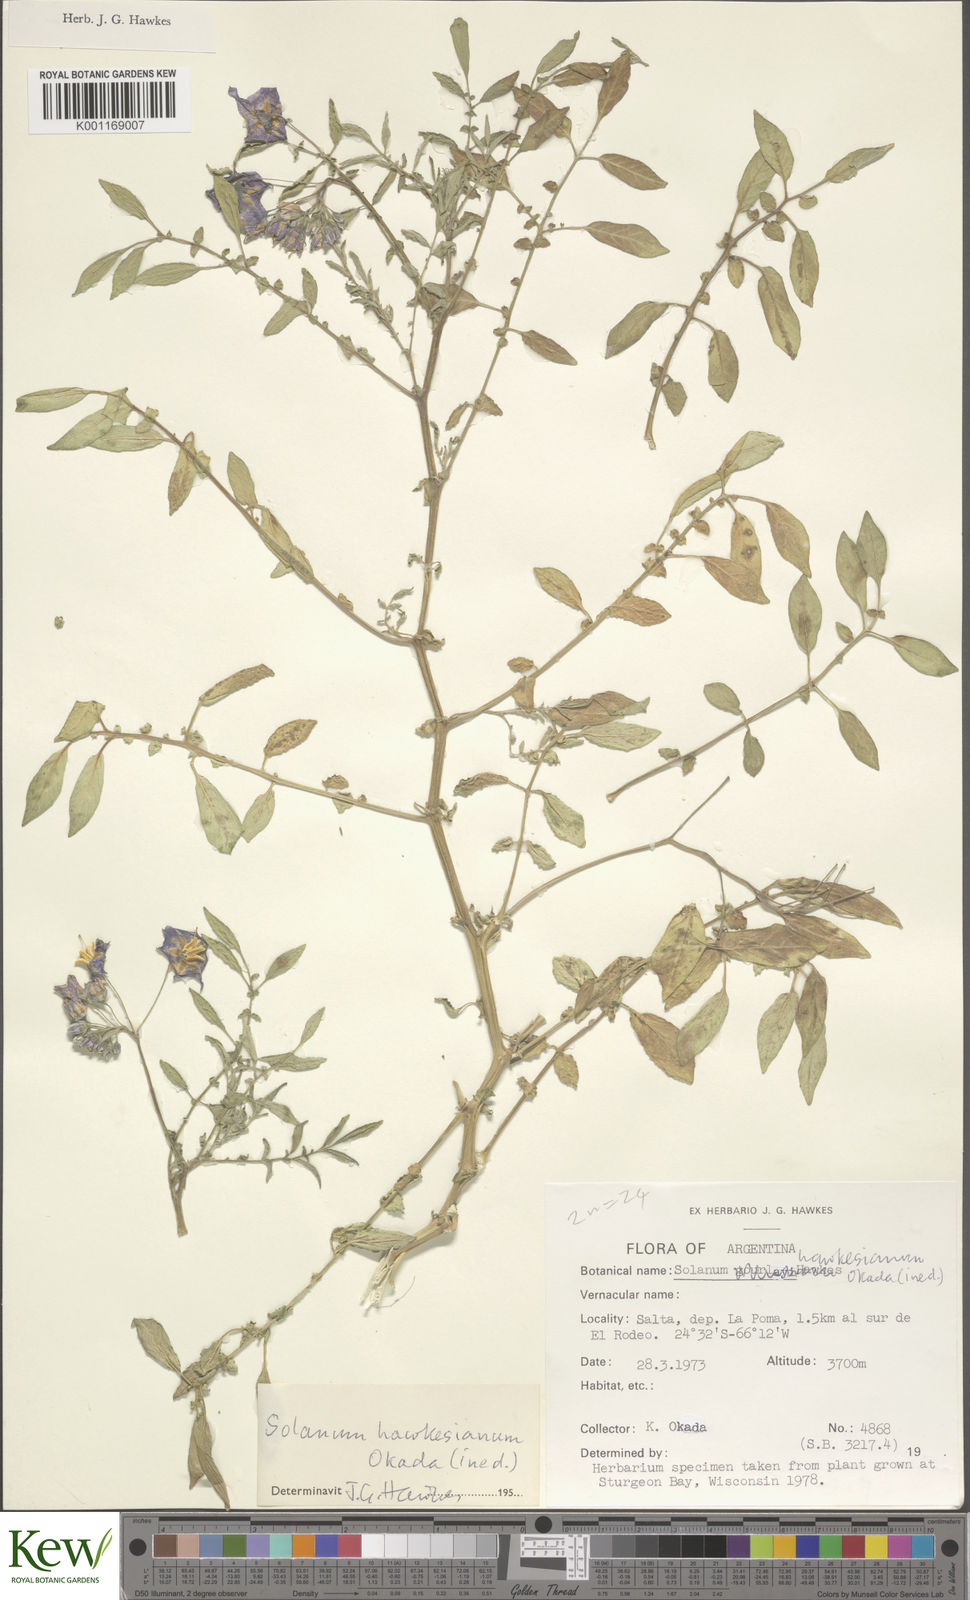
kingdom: Plantae
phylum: Tracheophyta
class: Magnoliopsida
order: Solanales
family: Solanaceae
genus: Solanum
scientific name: Solanum
